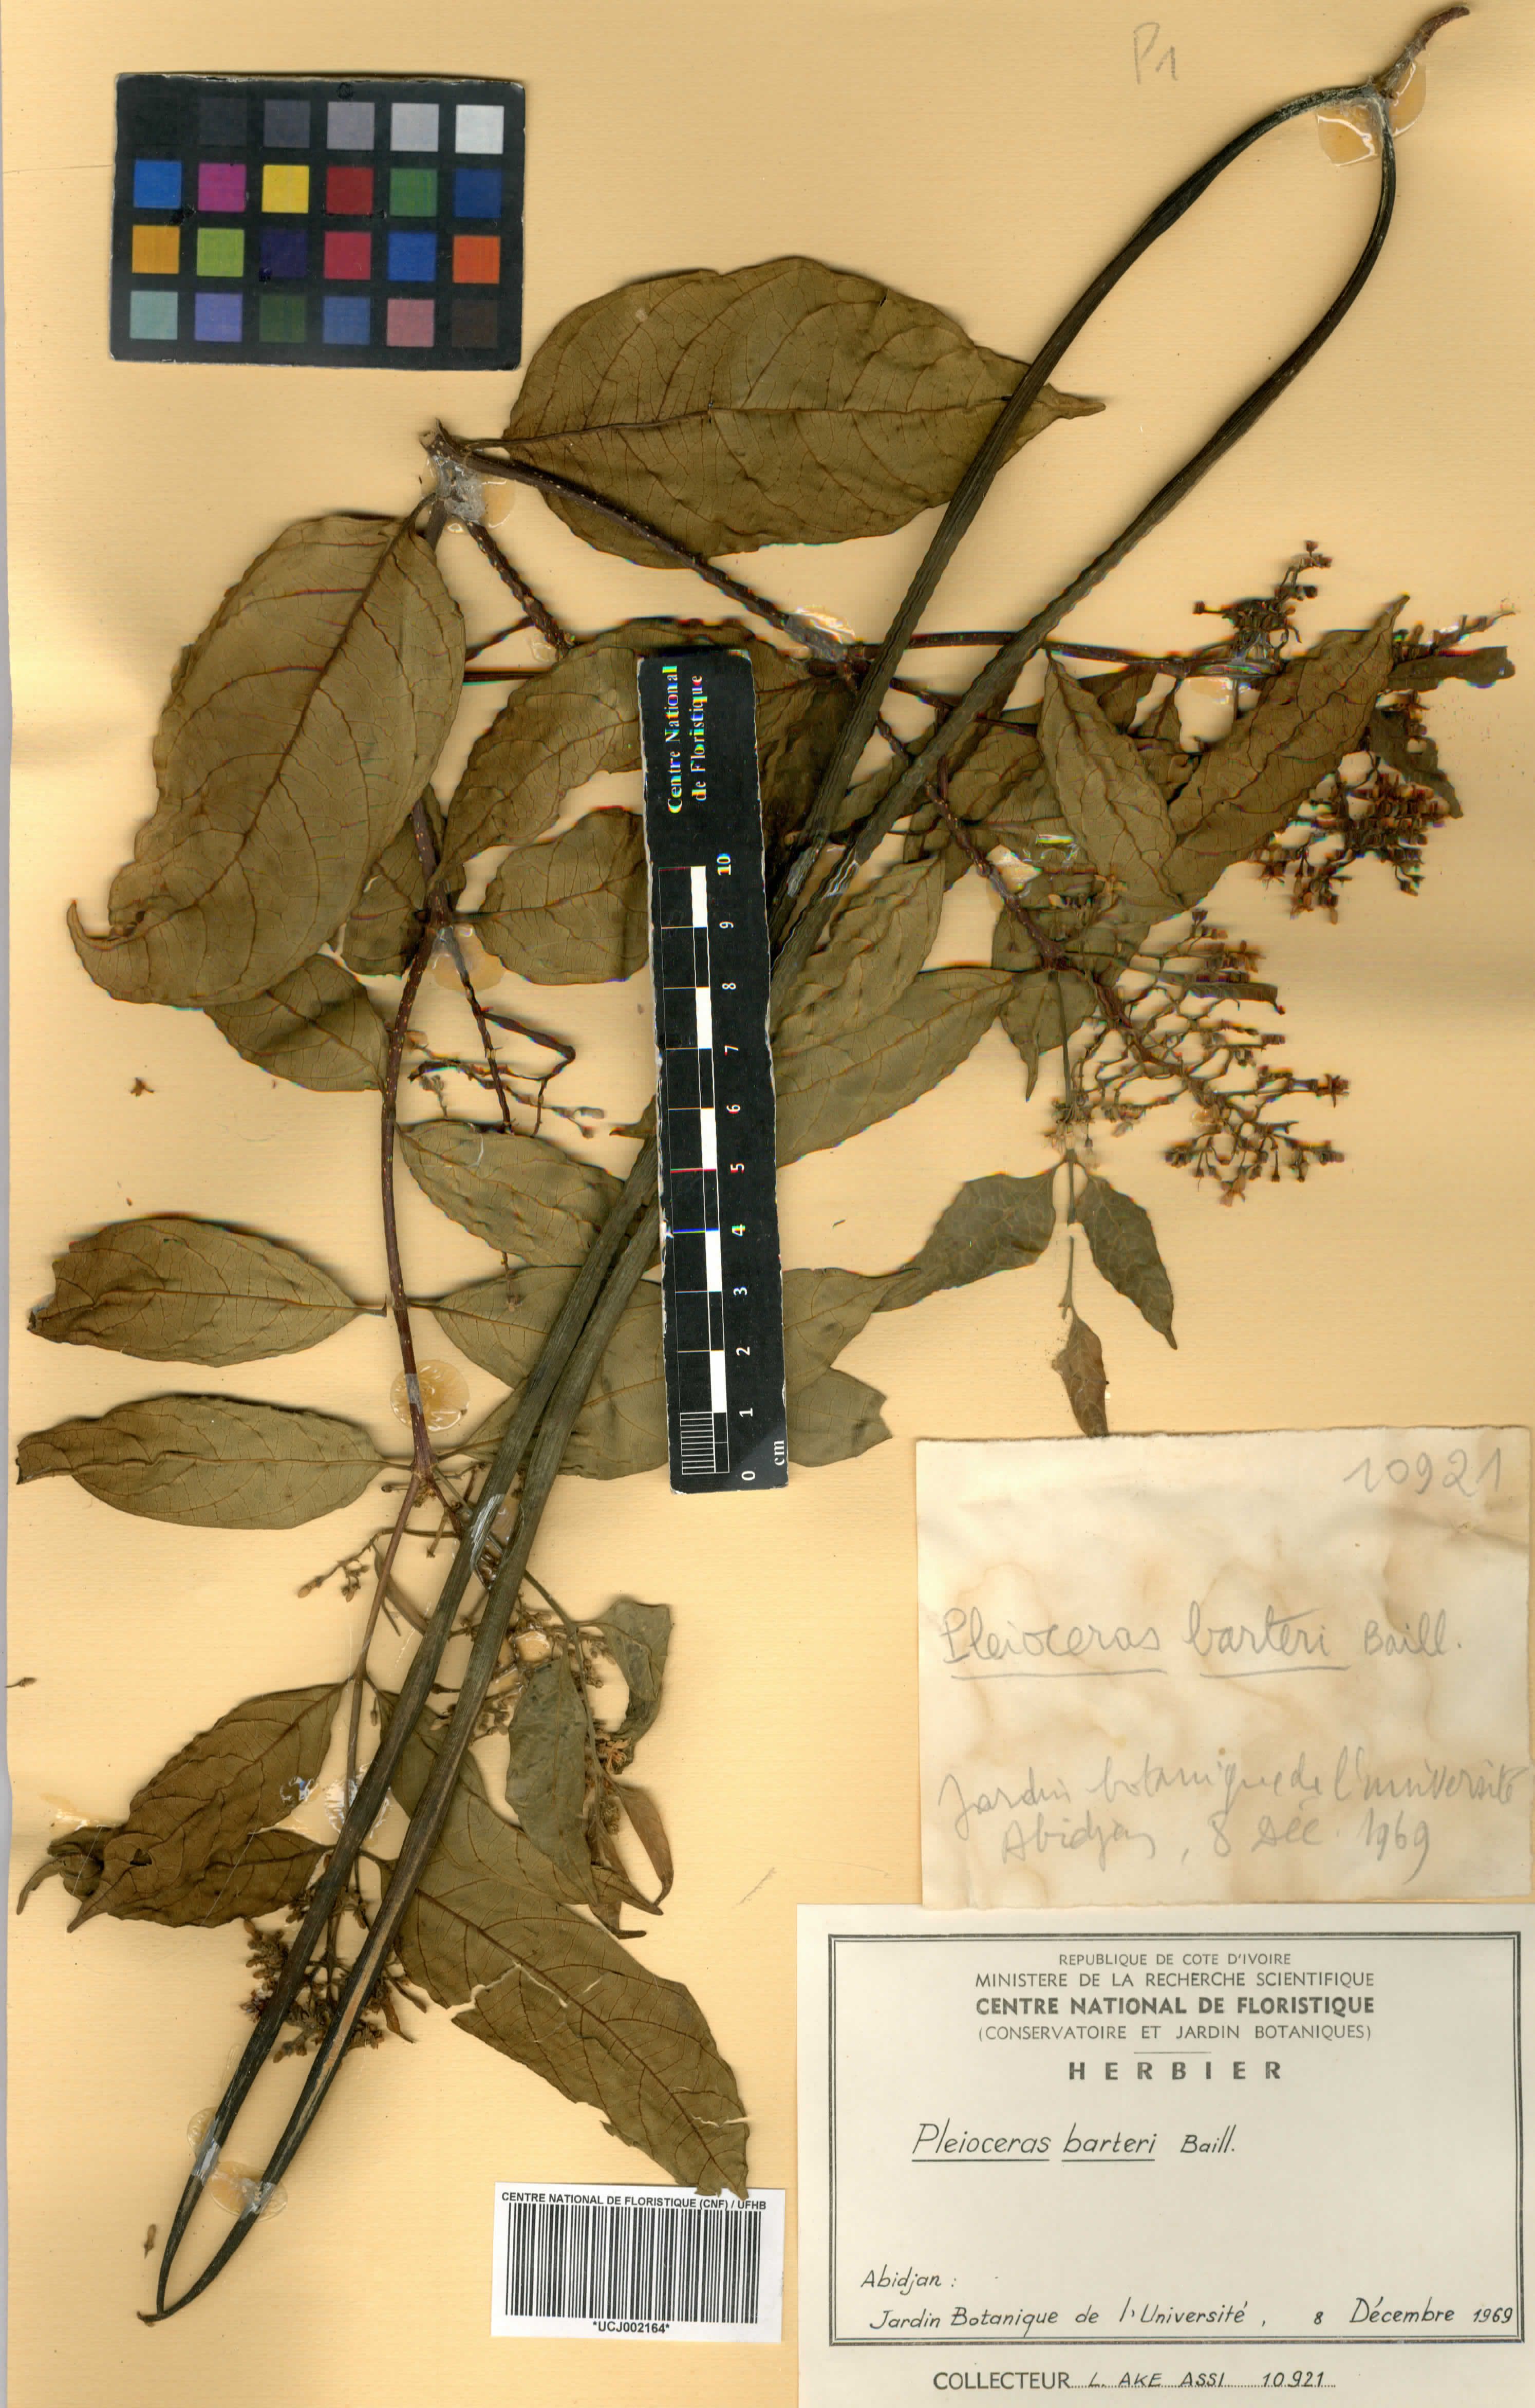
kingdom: Plantae
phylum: Tracheophyta
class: Magnoliopsida
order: Gentianales
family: Apocynaceae
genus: Pleioceras
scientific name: Pleioceras barteri
